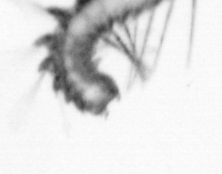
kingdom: Animalia
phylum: Annelida
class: Polychaeta
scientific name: Polychaeta
